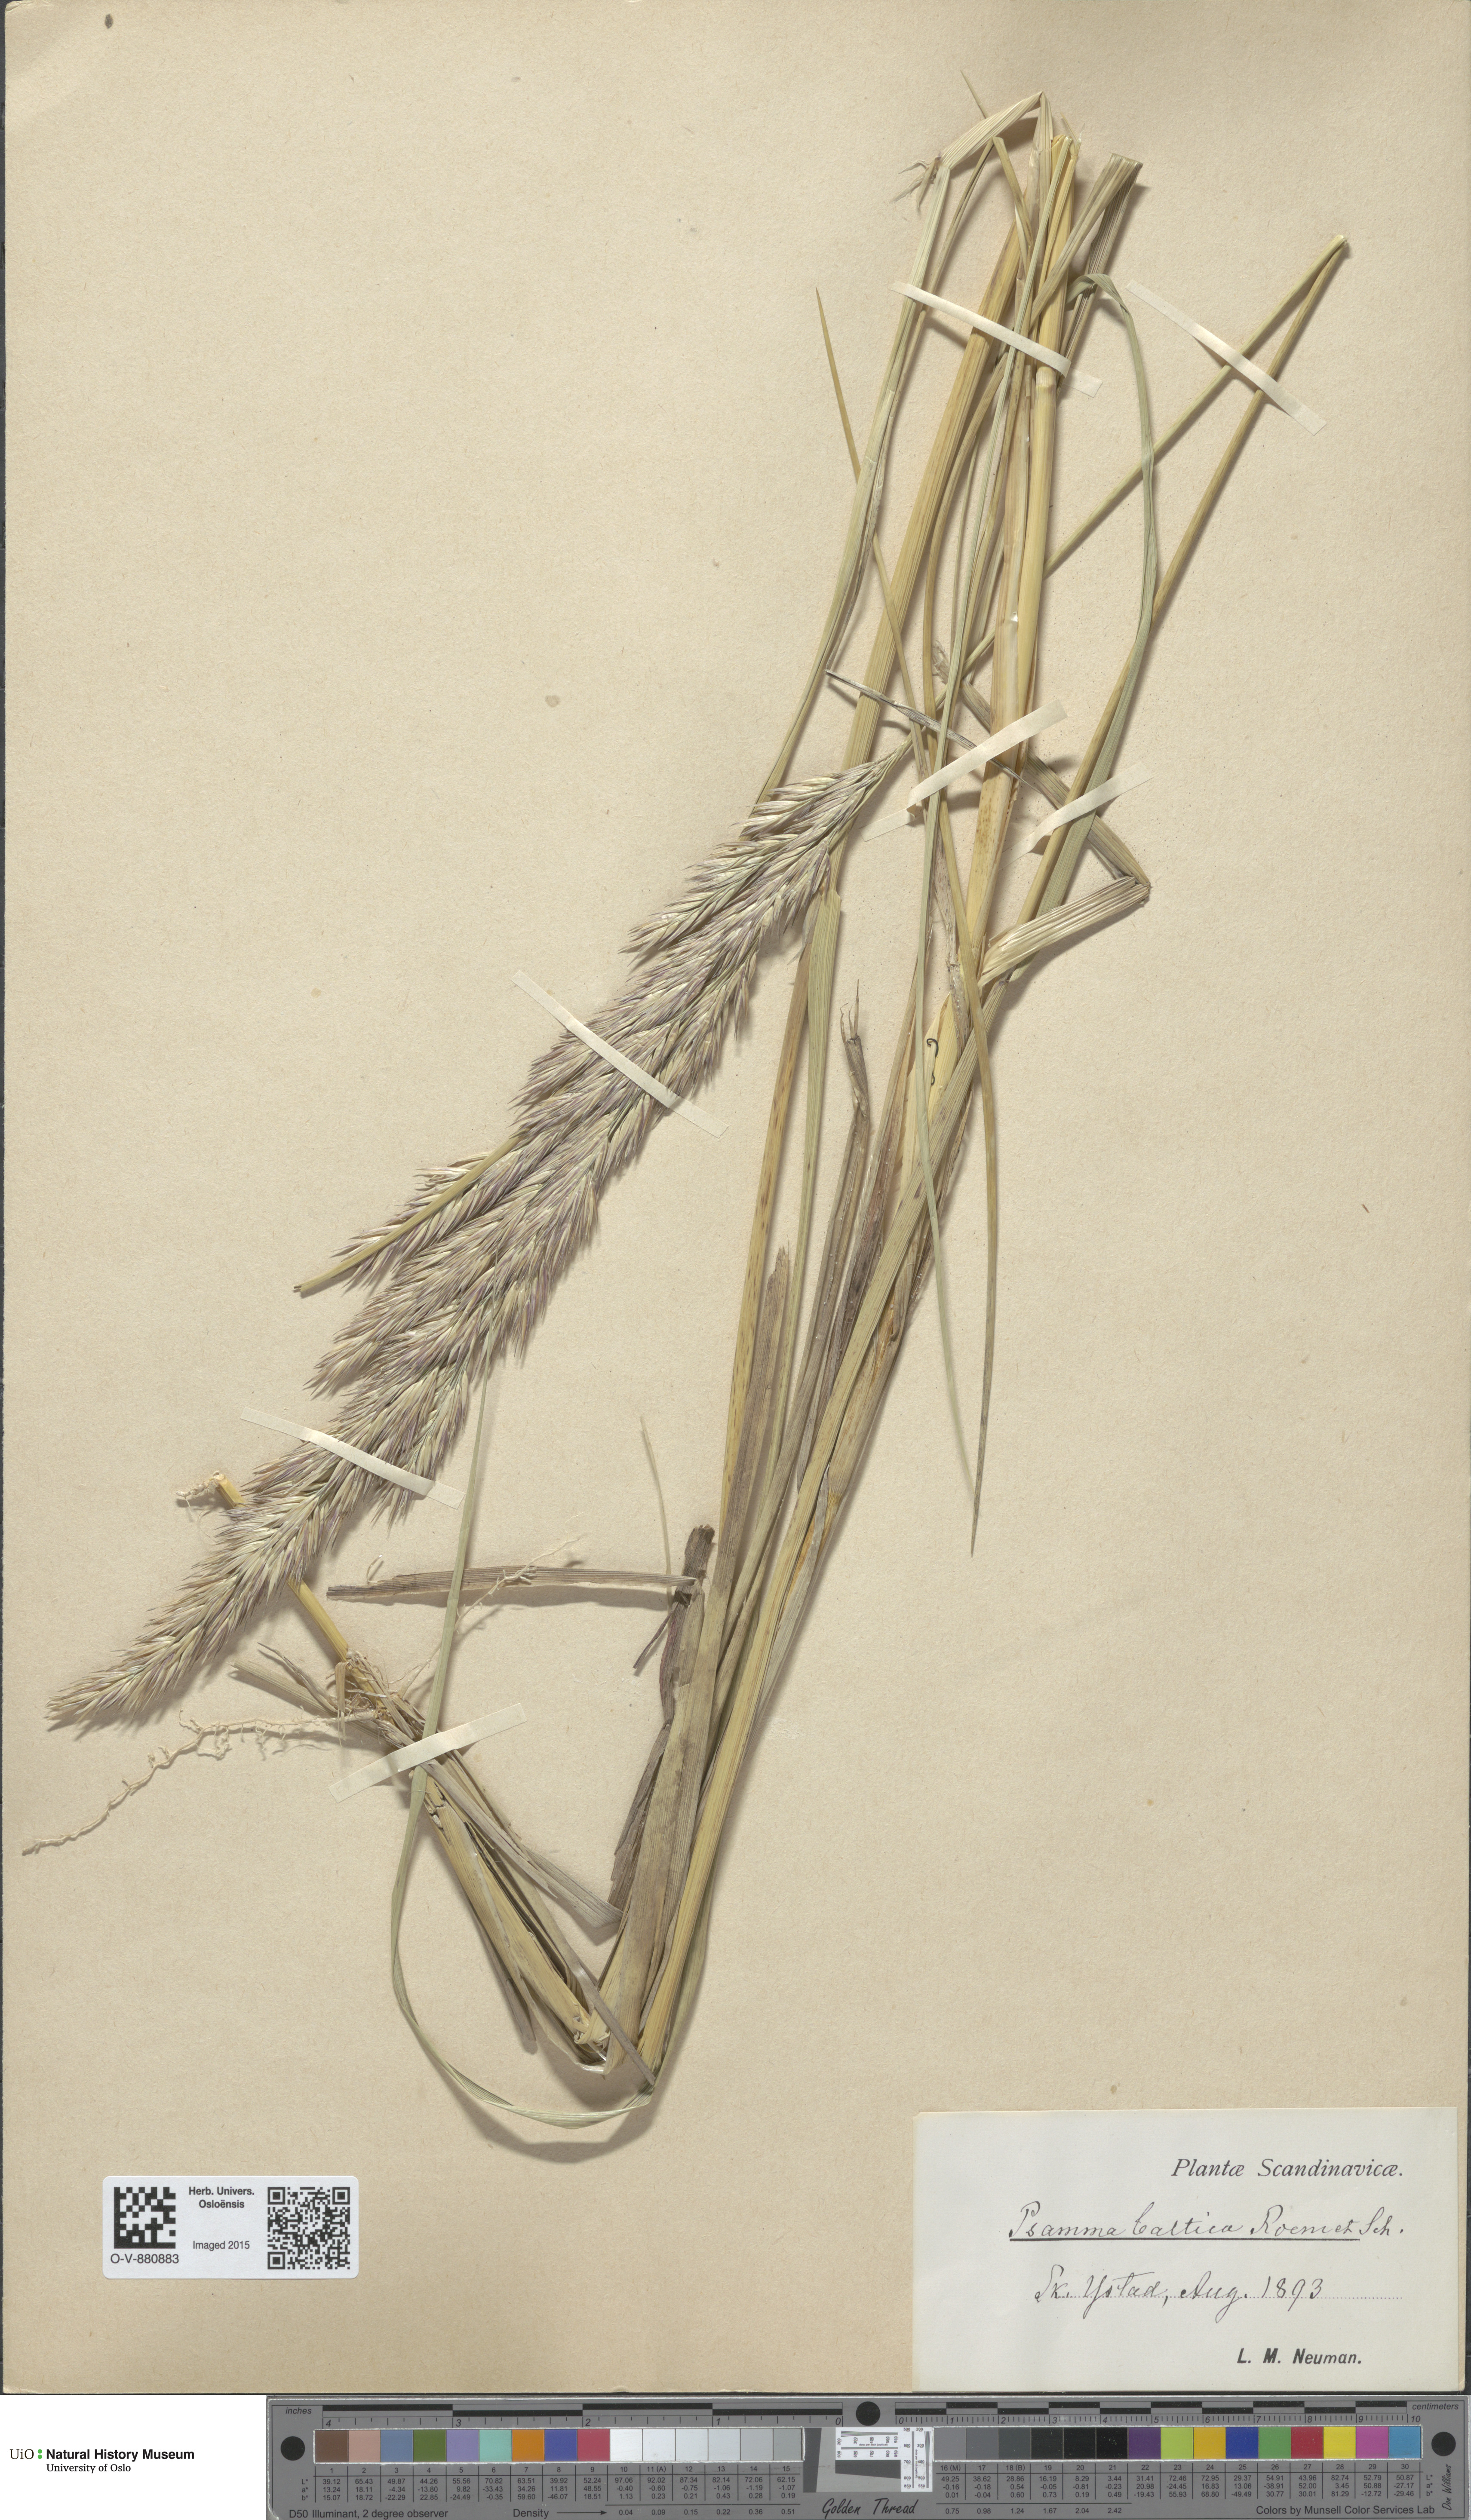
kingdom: Plantae
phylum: Tracheophyta
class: Liliopsida
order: Poales
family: Poaceae
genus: Calamagrostis
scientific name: Calamagrostis baltica
